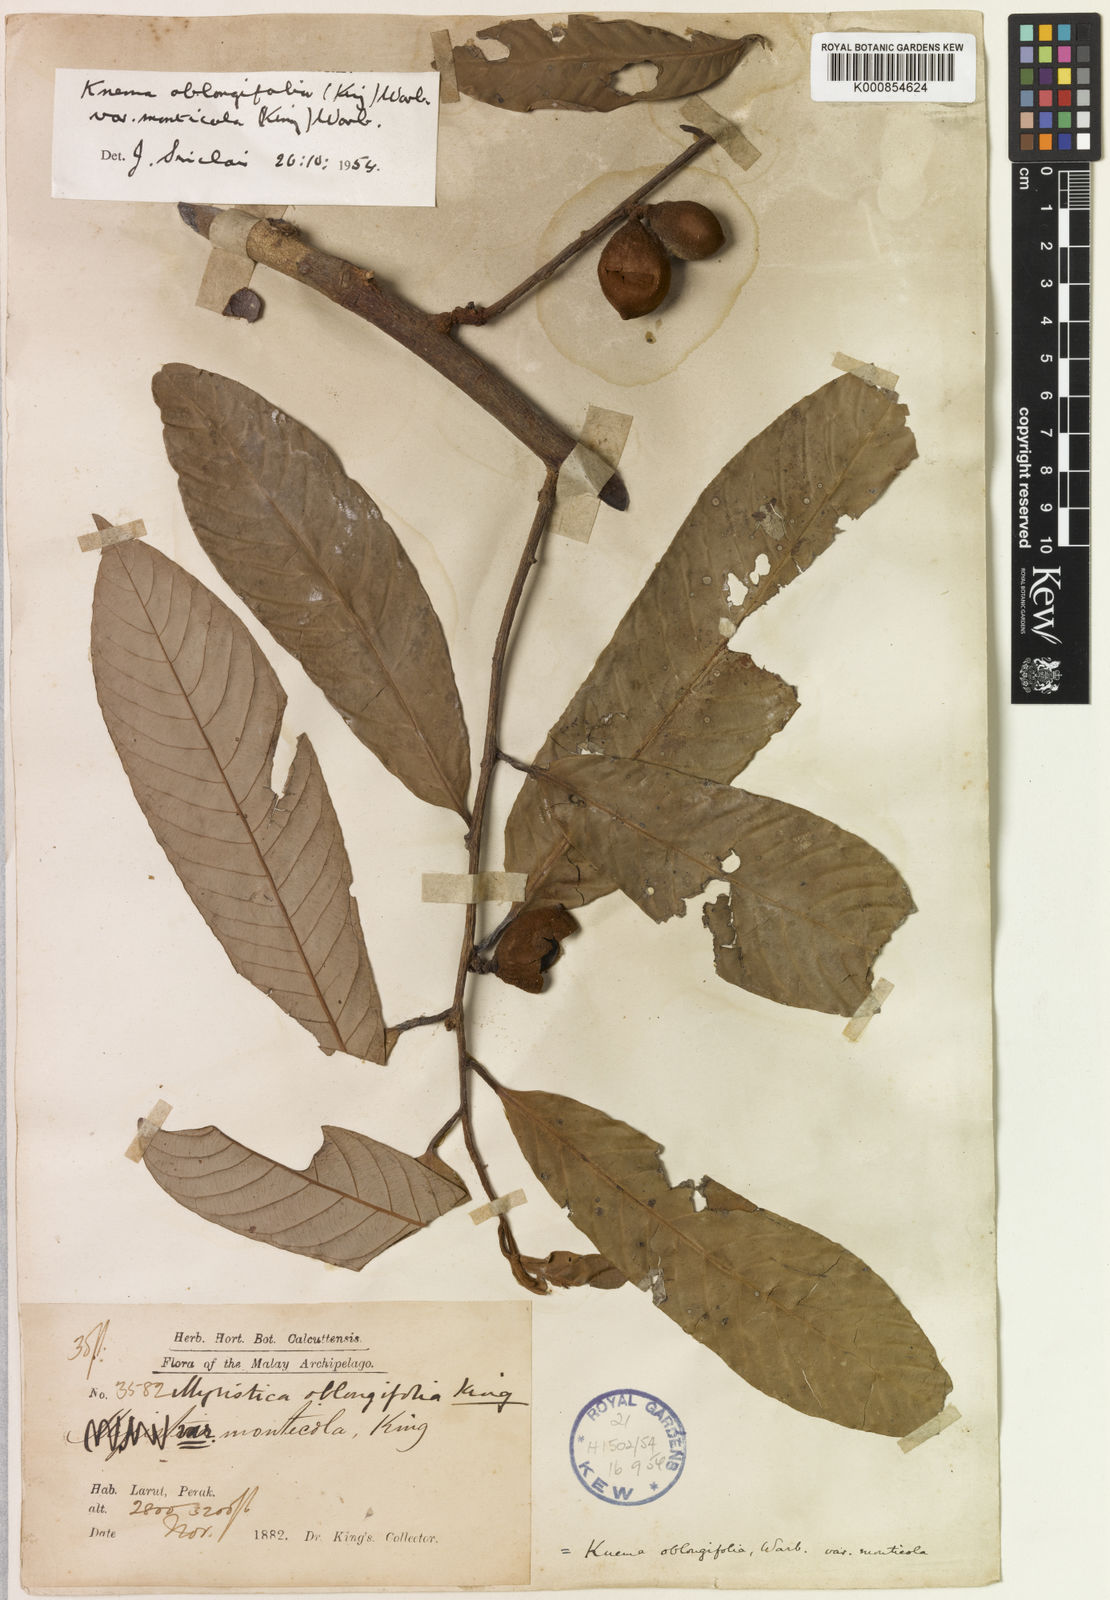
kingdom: Plantae
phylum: Tracheophyta
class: Magnoliopsida
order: Magnoliales
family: Myristicaceae
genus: Knema
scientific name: Knema oblongifolia
